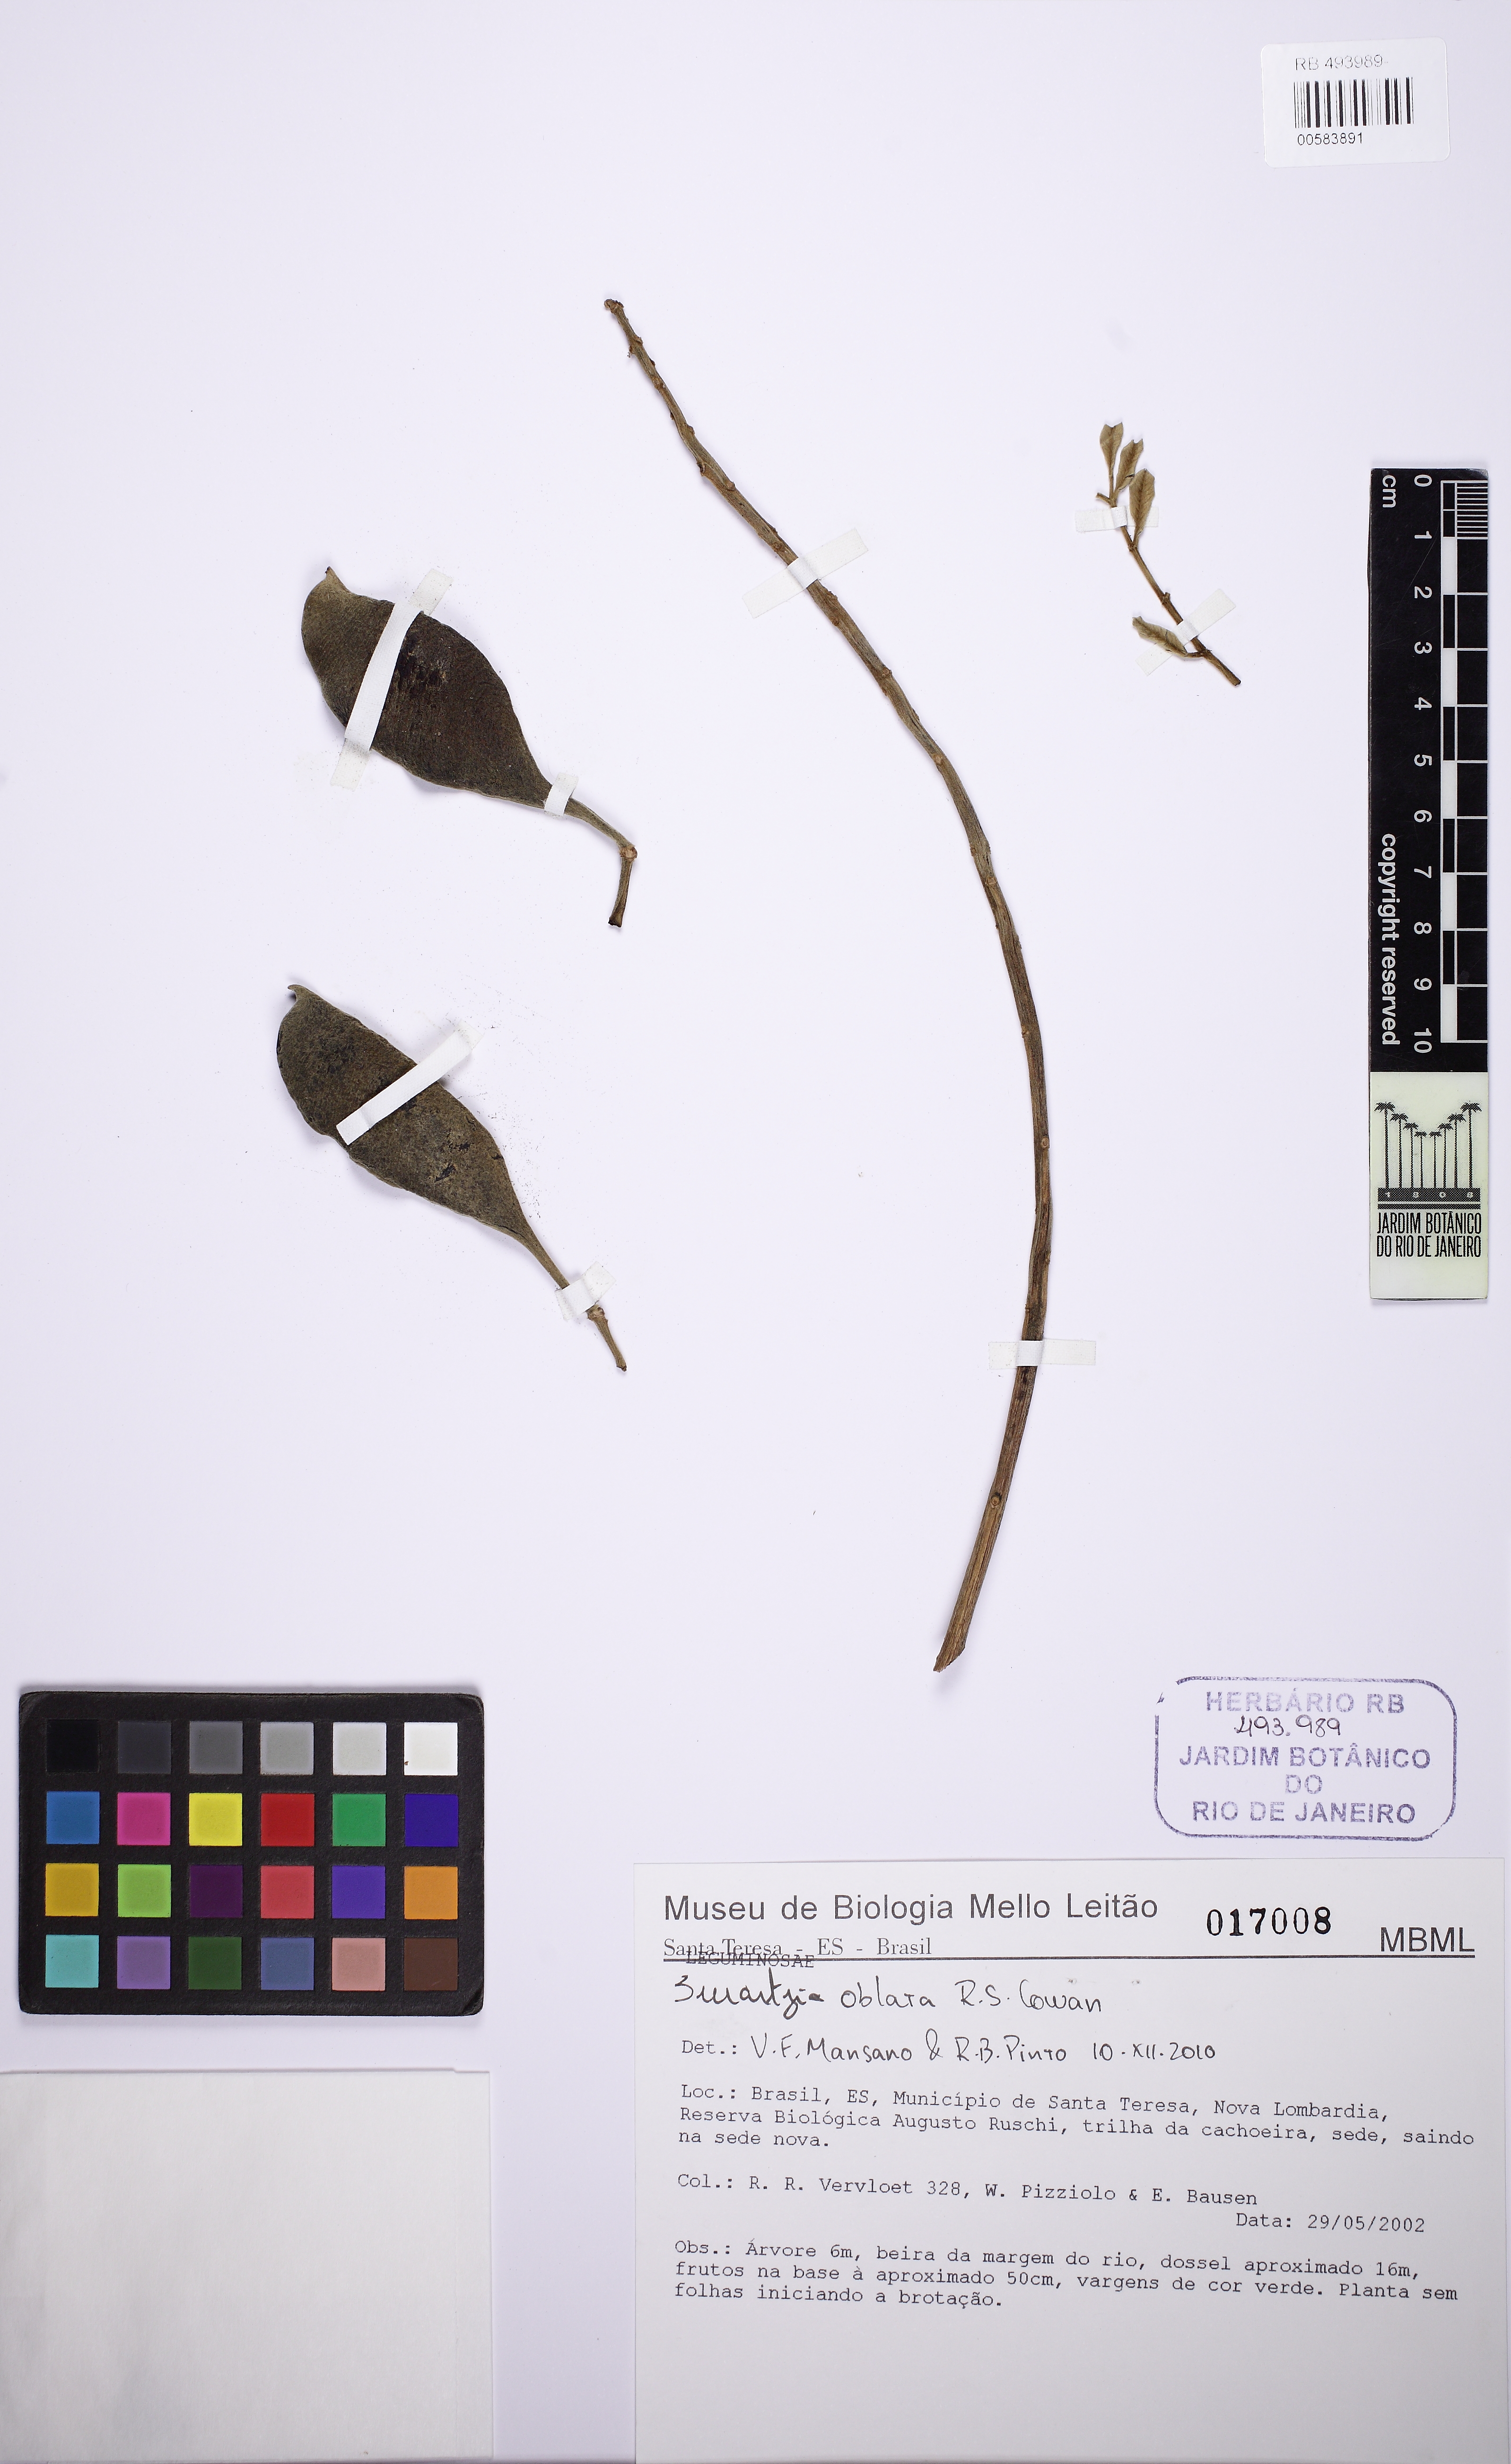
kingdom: Plantae
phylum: Tracheophyta
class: Magnoliopsida
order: Fabales
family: Fabaceae
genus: Swartzia
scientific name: Swartzia oblata
